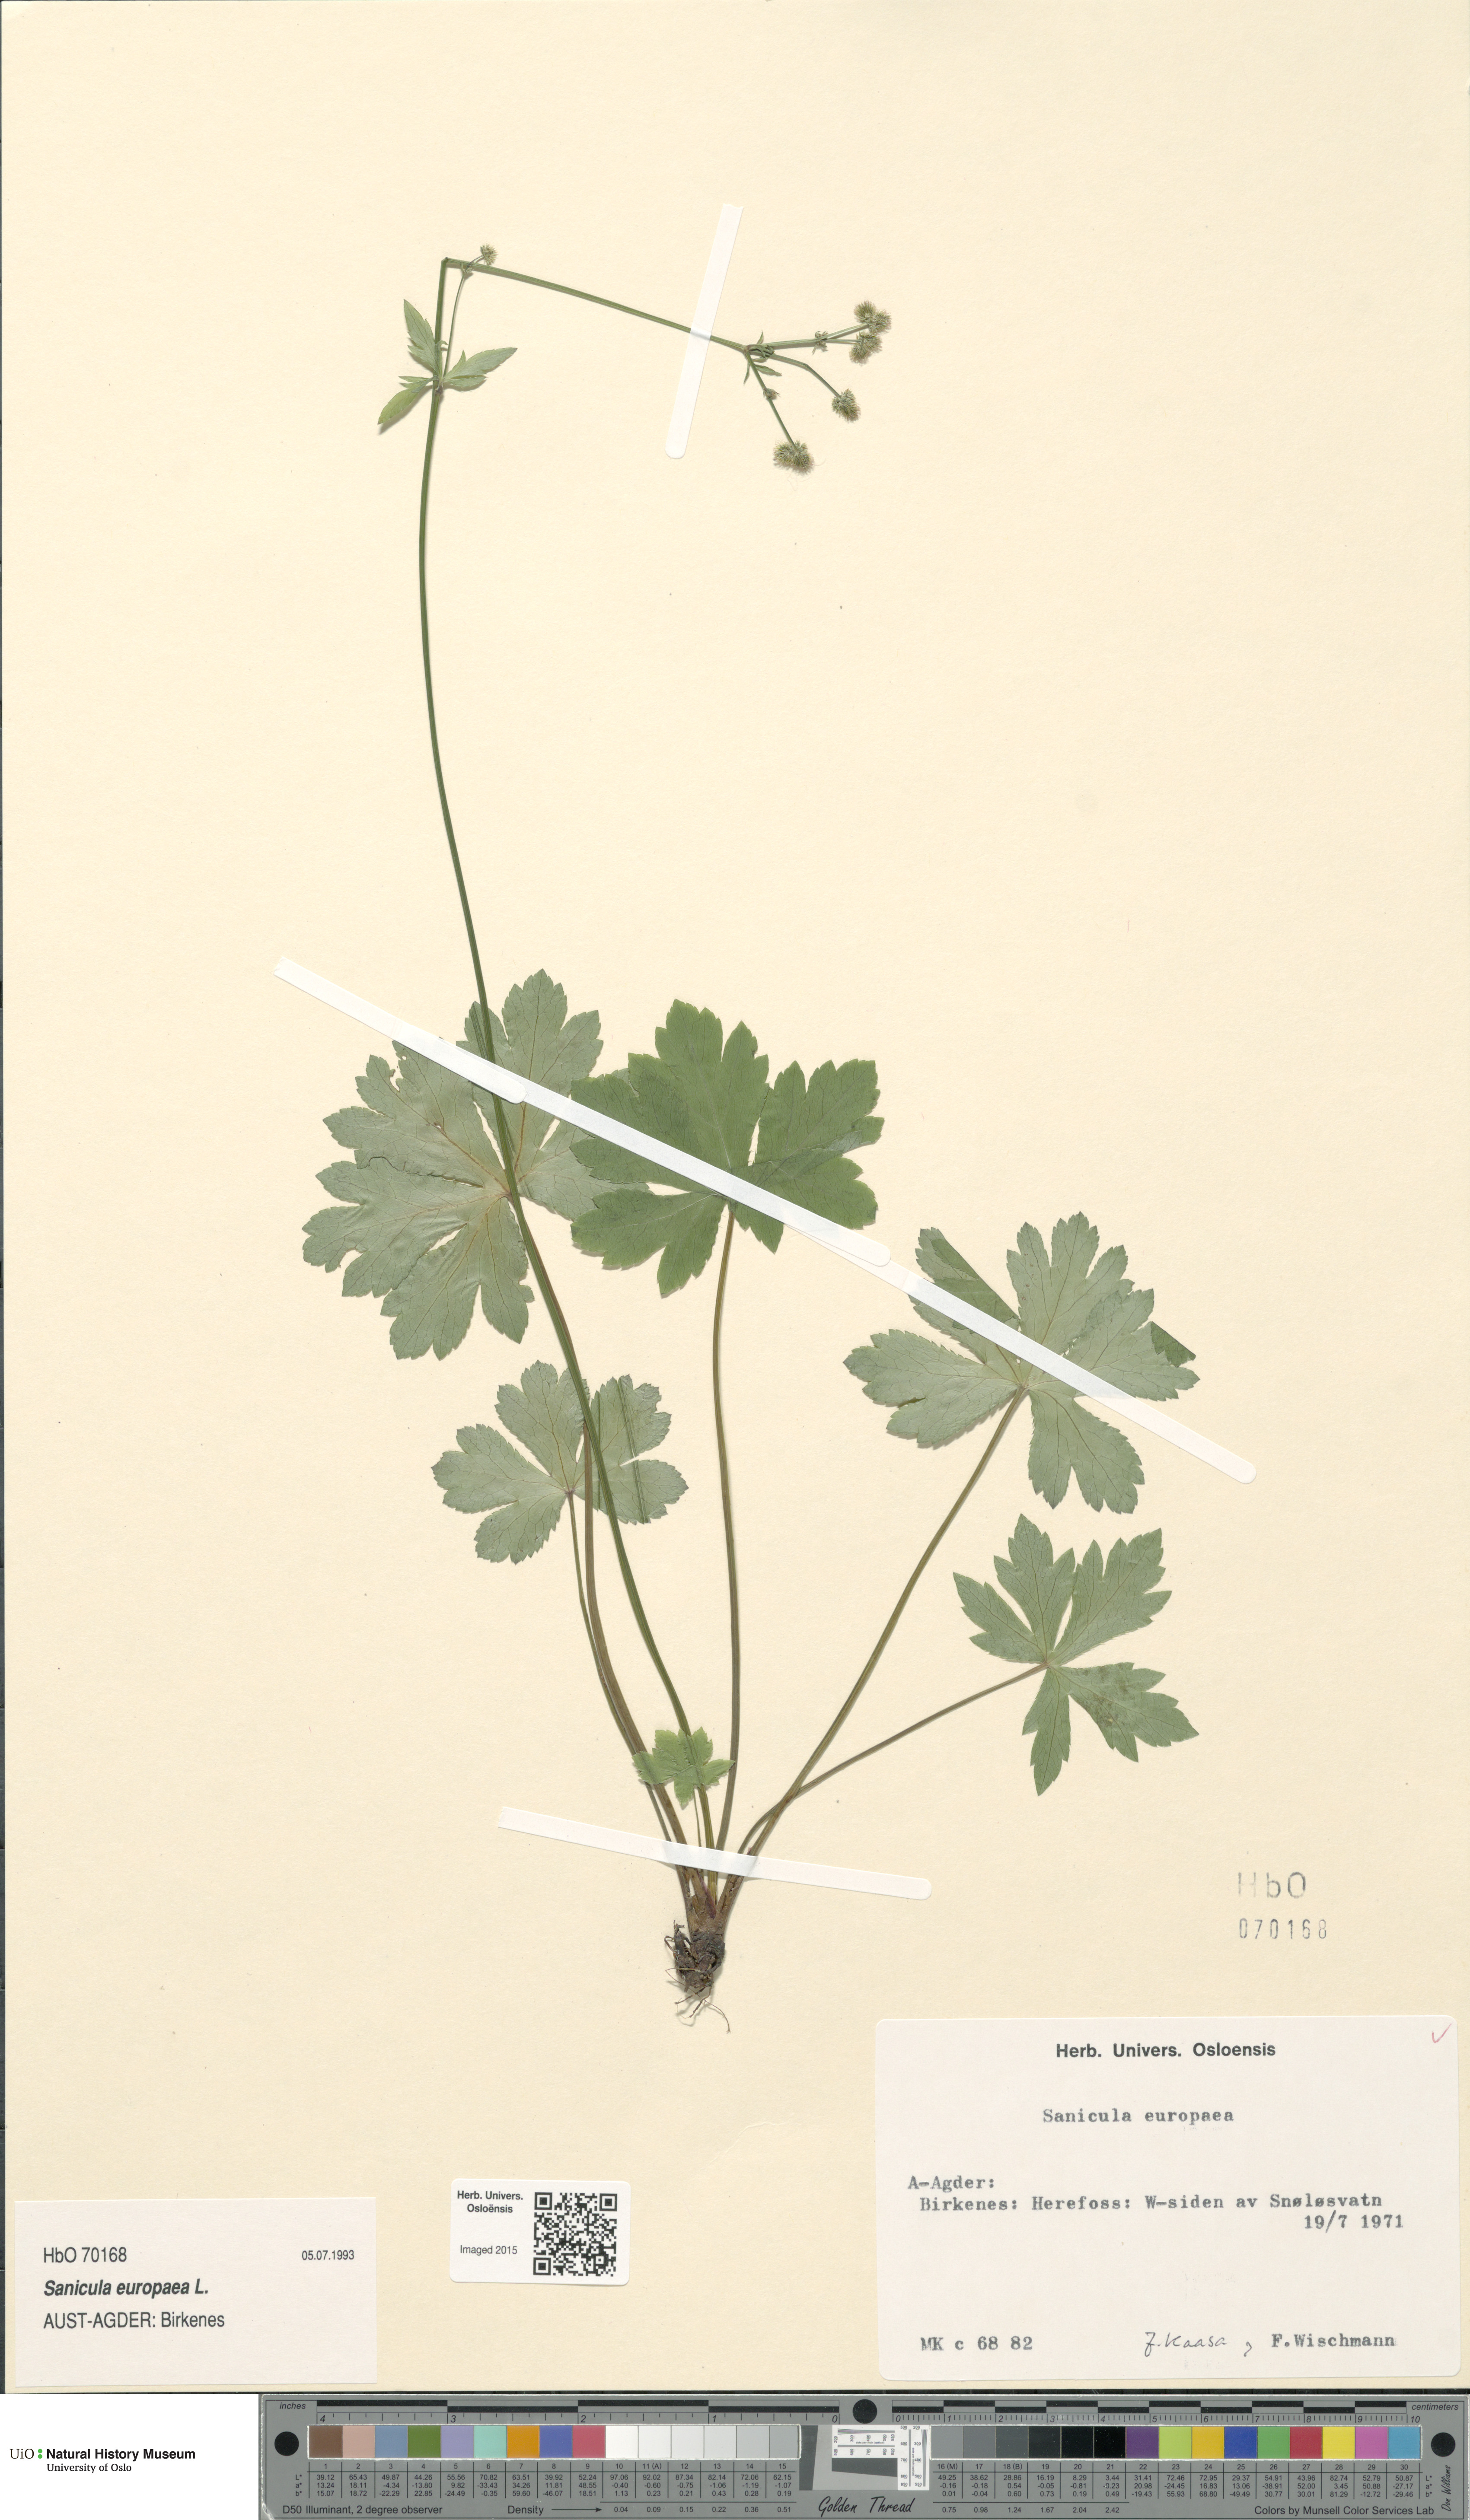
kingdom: Plantae
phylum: Tracheophyta
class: Magnoliopsida
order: Apiales
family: Apiaceae
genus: Sanicula
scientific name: Sanicula europaea
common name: Sanicle
